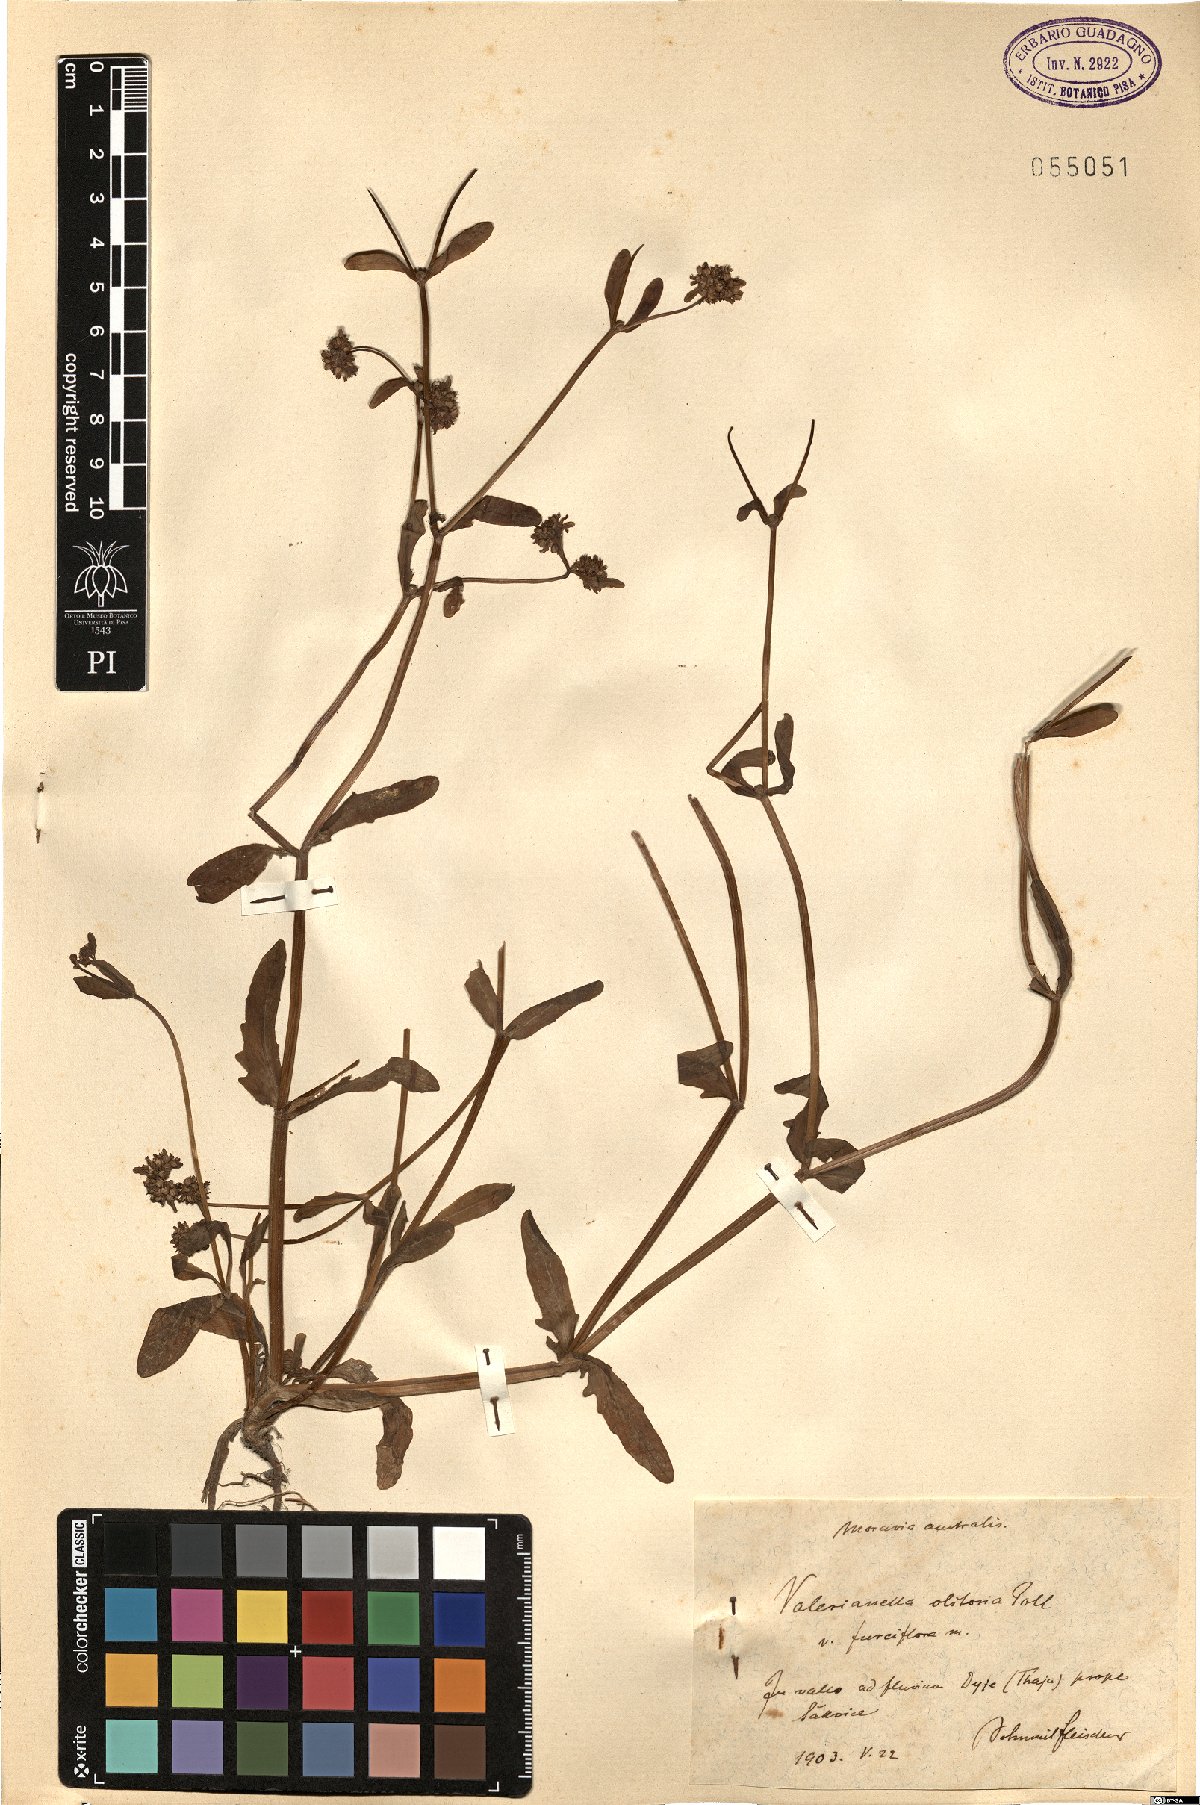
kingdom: Plantae
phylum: Tracheophyta
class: Magnoliopsida
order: Dipsacales
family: Caprifoliaceae
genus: Valerianella
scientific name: Valerianella locusta
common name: Common cornsalad
